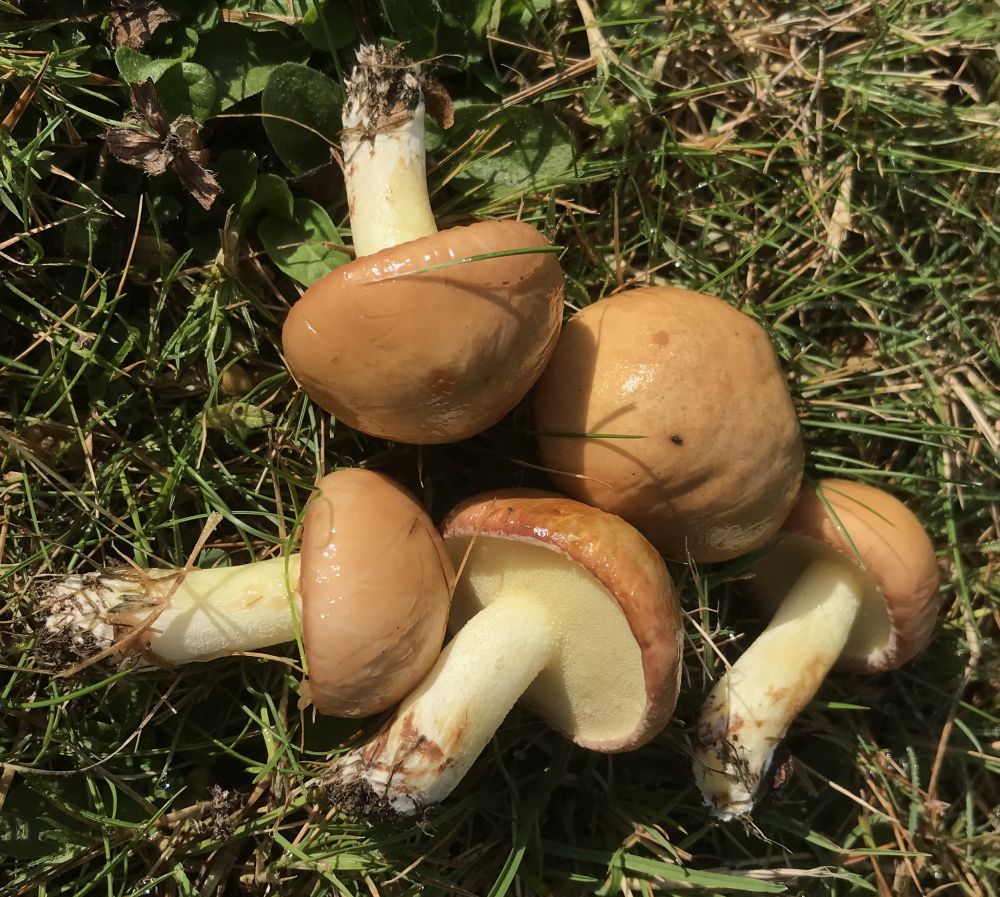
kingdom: Fungi
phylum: Basidiomycota
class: Agaricomycetes
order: Boletales
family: Suillaceae
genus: Suillus
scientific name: Suillus granulatus
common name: kornet slimrørhat
